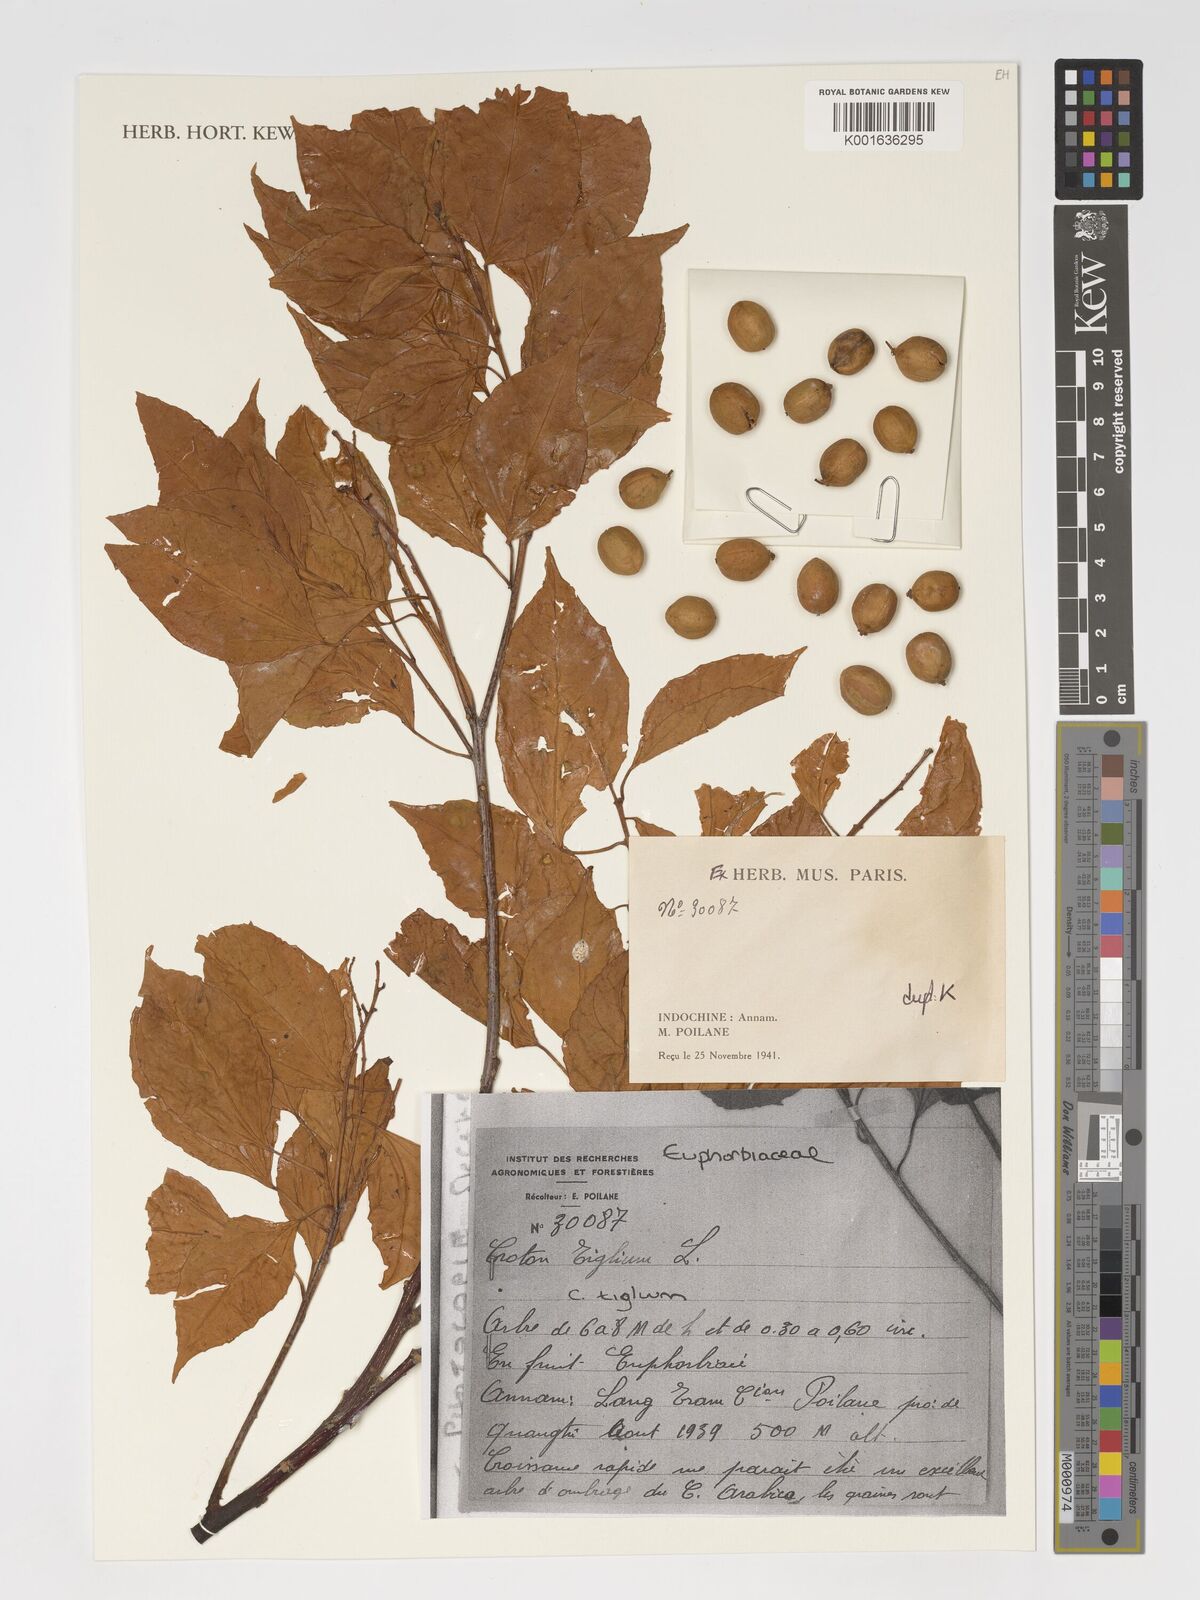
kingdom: Plantae
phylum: Tracheophyta
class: Magnoliopsida
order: Malpighiales
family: Euphorbiaceae
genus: Croton
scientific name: Croton tiglium
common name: Purging croton
